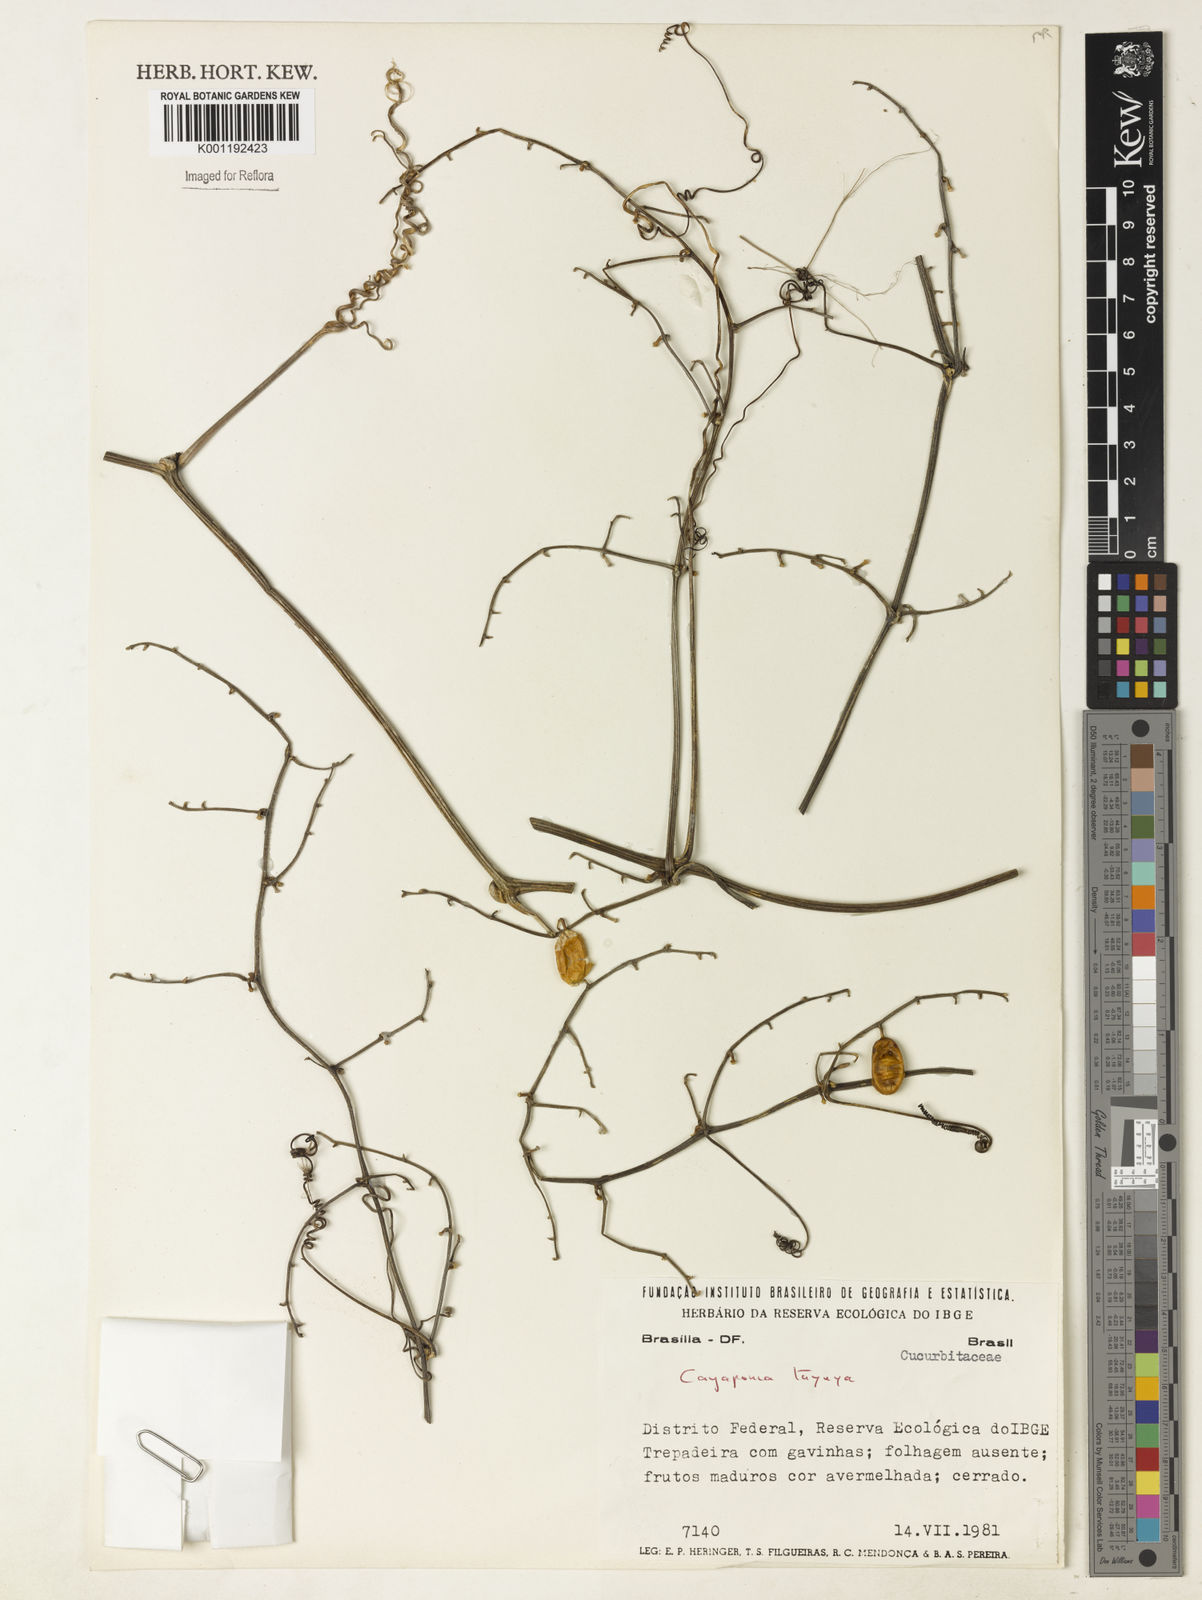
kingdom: Plantae
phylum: Tracheophyta
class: Magnoliopsida
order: Cucurbitales
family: Cucurbitaceae
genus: Cayaponia
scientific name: Cayaponia tayuya
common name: Tayuya
